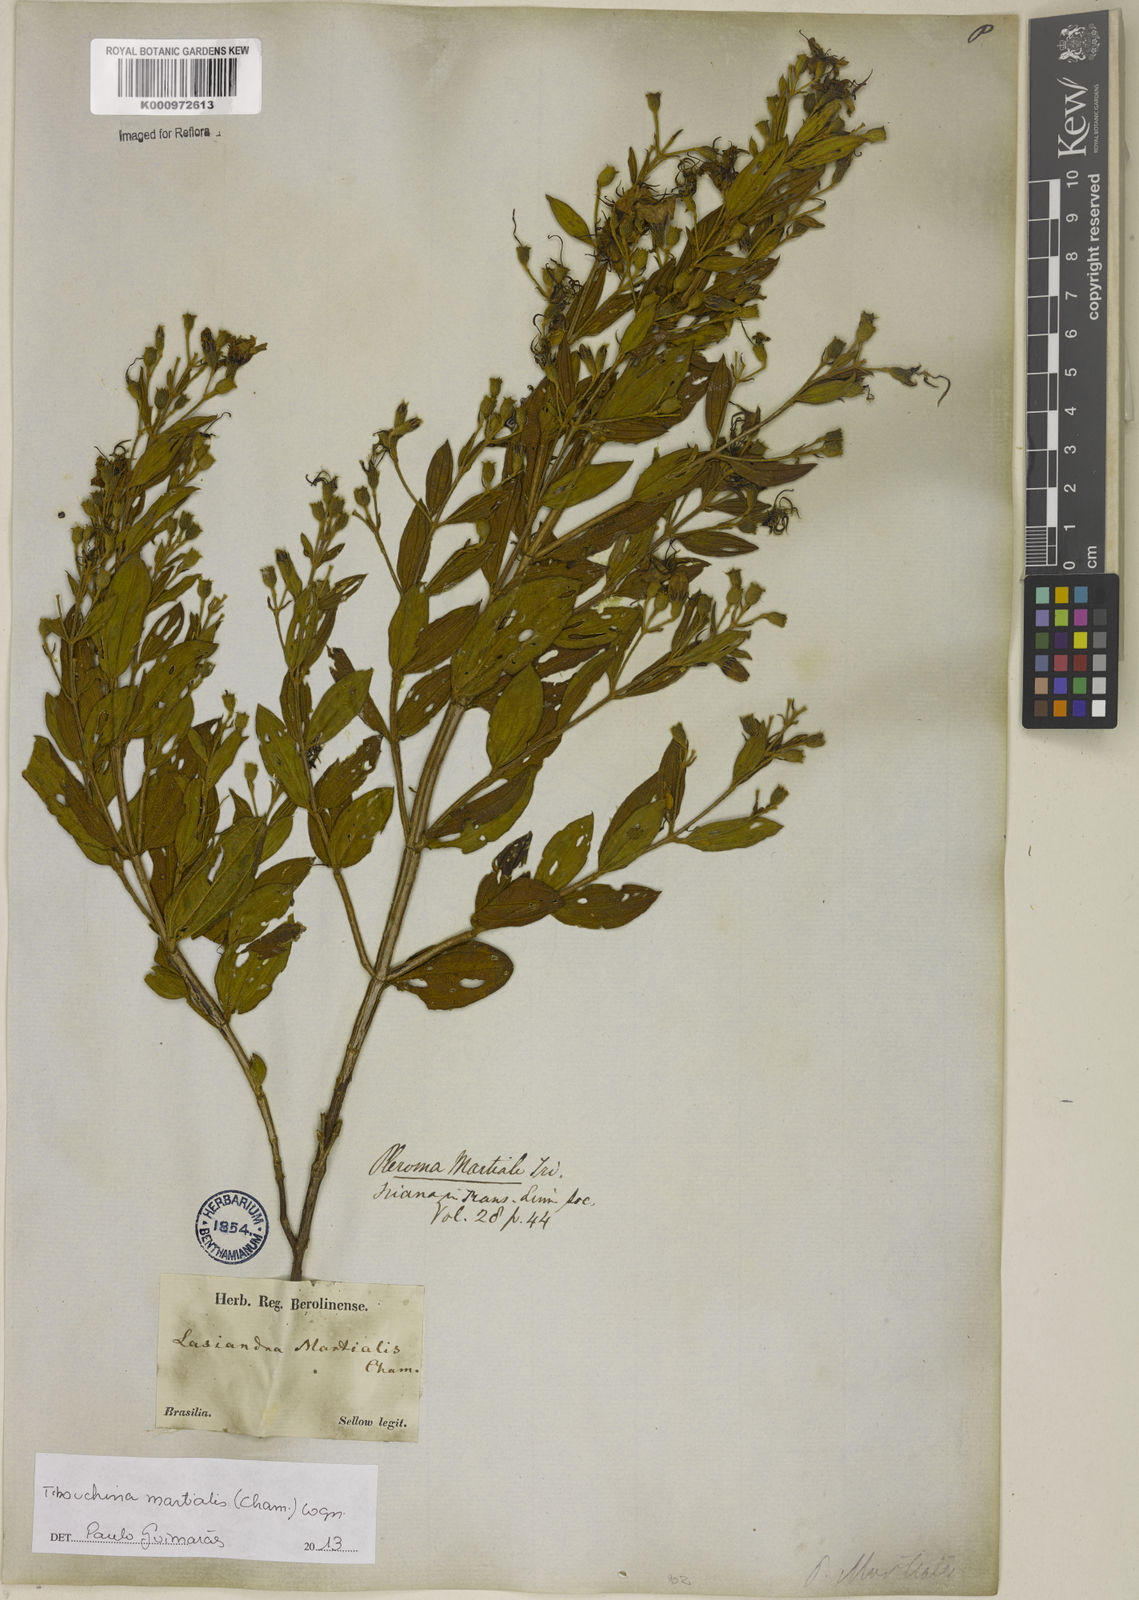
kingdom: Plantae
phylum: Tracheophyta
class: Magnoliopsida
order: Myrtales
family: Melastomataceae
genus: Pleroma
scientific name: Pleroma martiale
